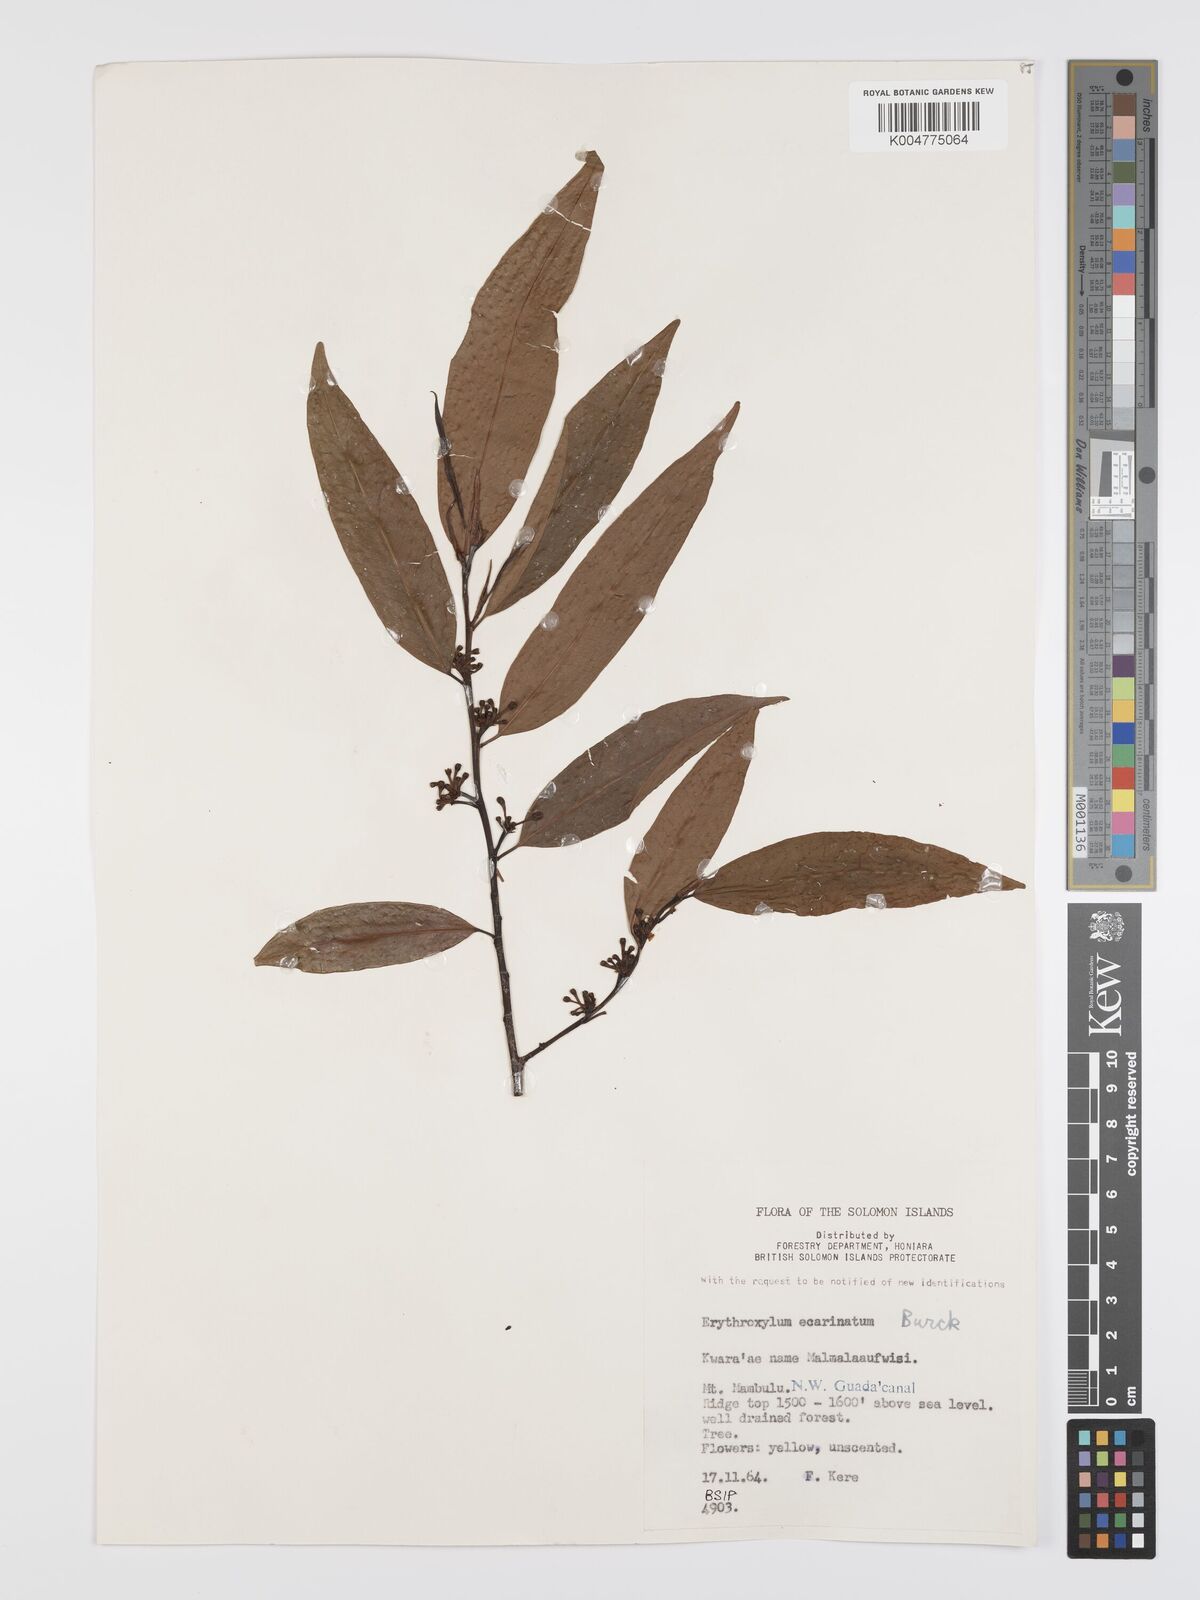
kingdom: Plantae
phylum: Tracheophyta
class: Magnoliopsida
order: Malpighiales
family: Erythroxylaceae
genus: Erythroxylum
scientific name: Erythroxylum ecarinatum
